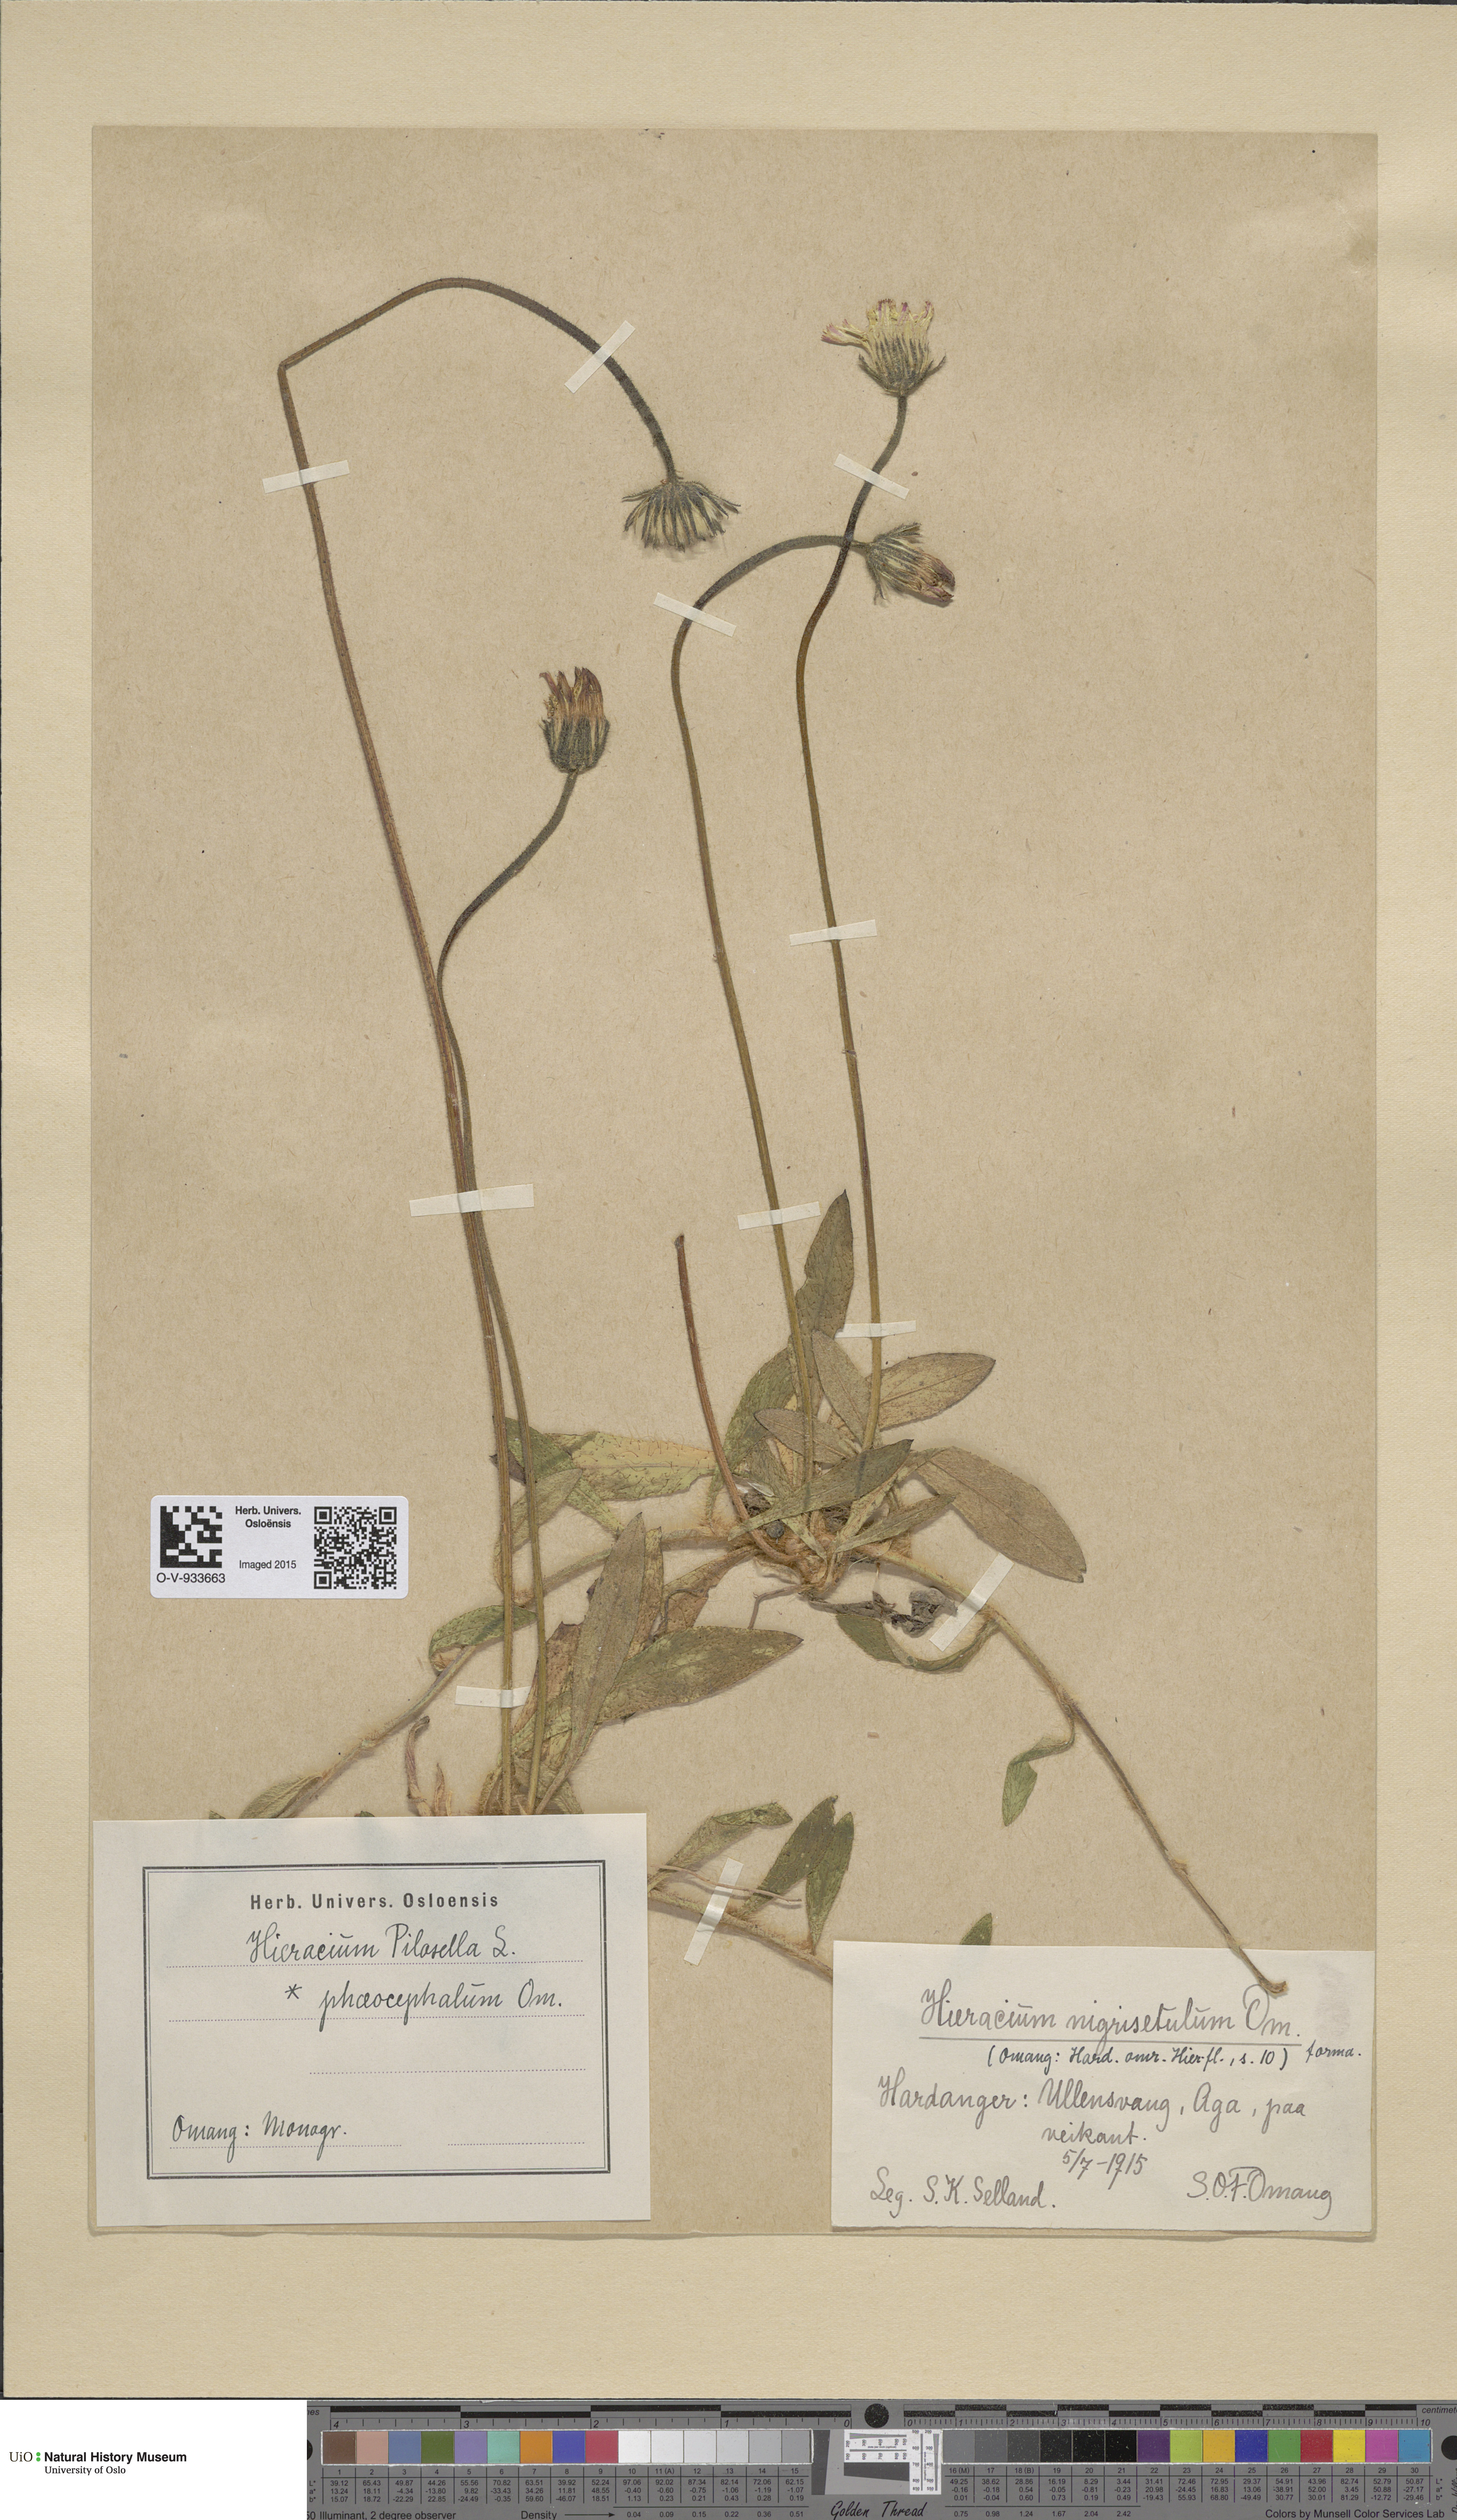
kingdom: Plantae
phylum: Tracheophyta
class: Magnoliopsida
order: Asterales
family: Asteraceae
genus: Pilosella
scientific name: Pilosella officinarum
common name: Mouse-ear hawkweed
